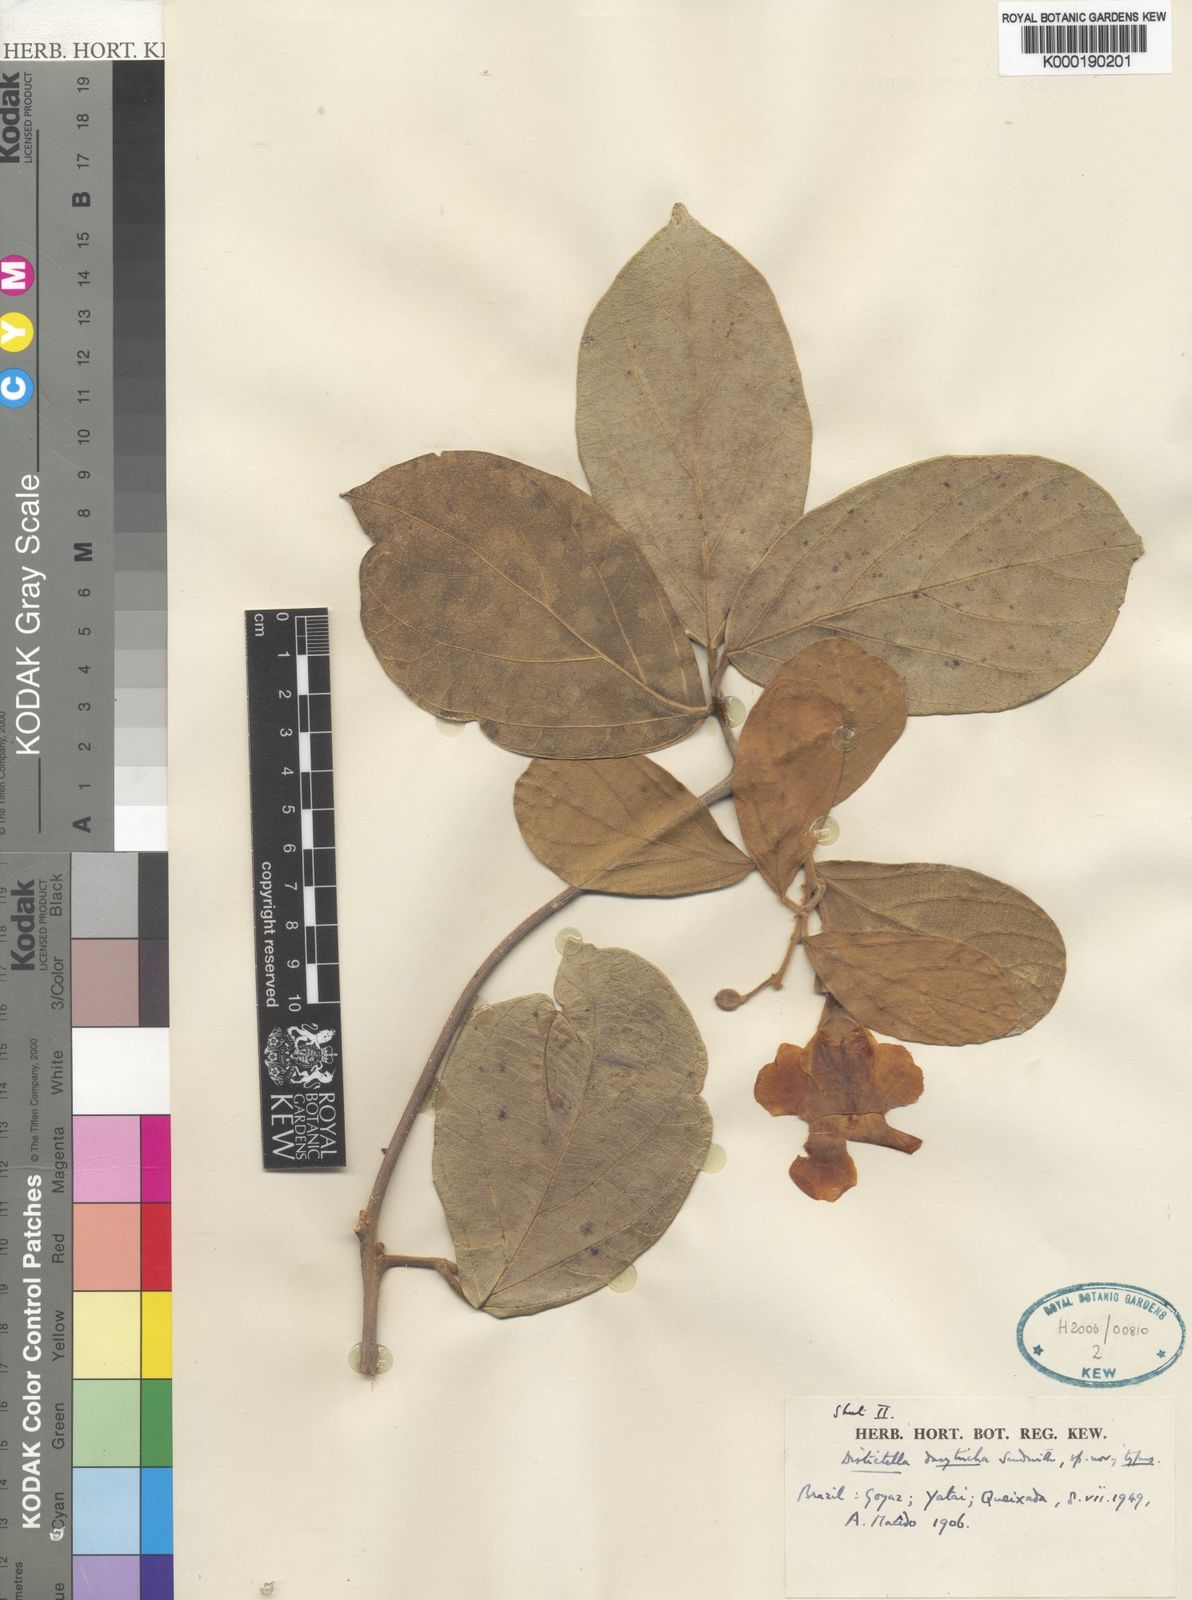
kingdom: Plantae
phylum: Tracheophyta
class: Magnoliopsida
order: Lamiales
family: Bignoniaceae
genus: Amphilophium
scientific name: Amphilophium dasytrichum
